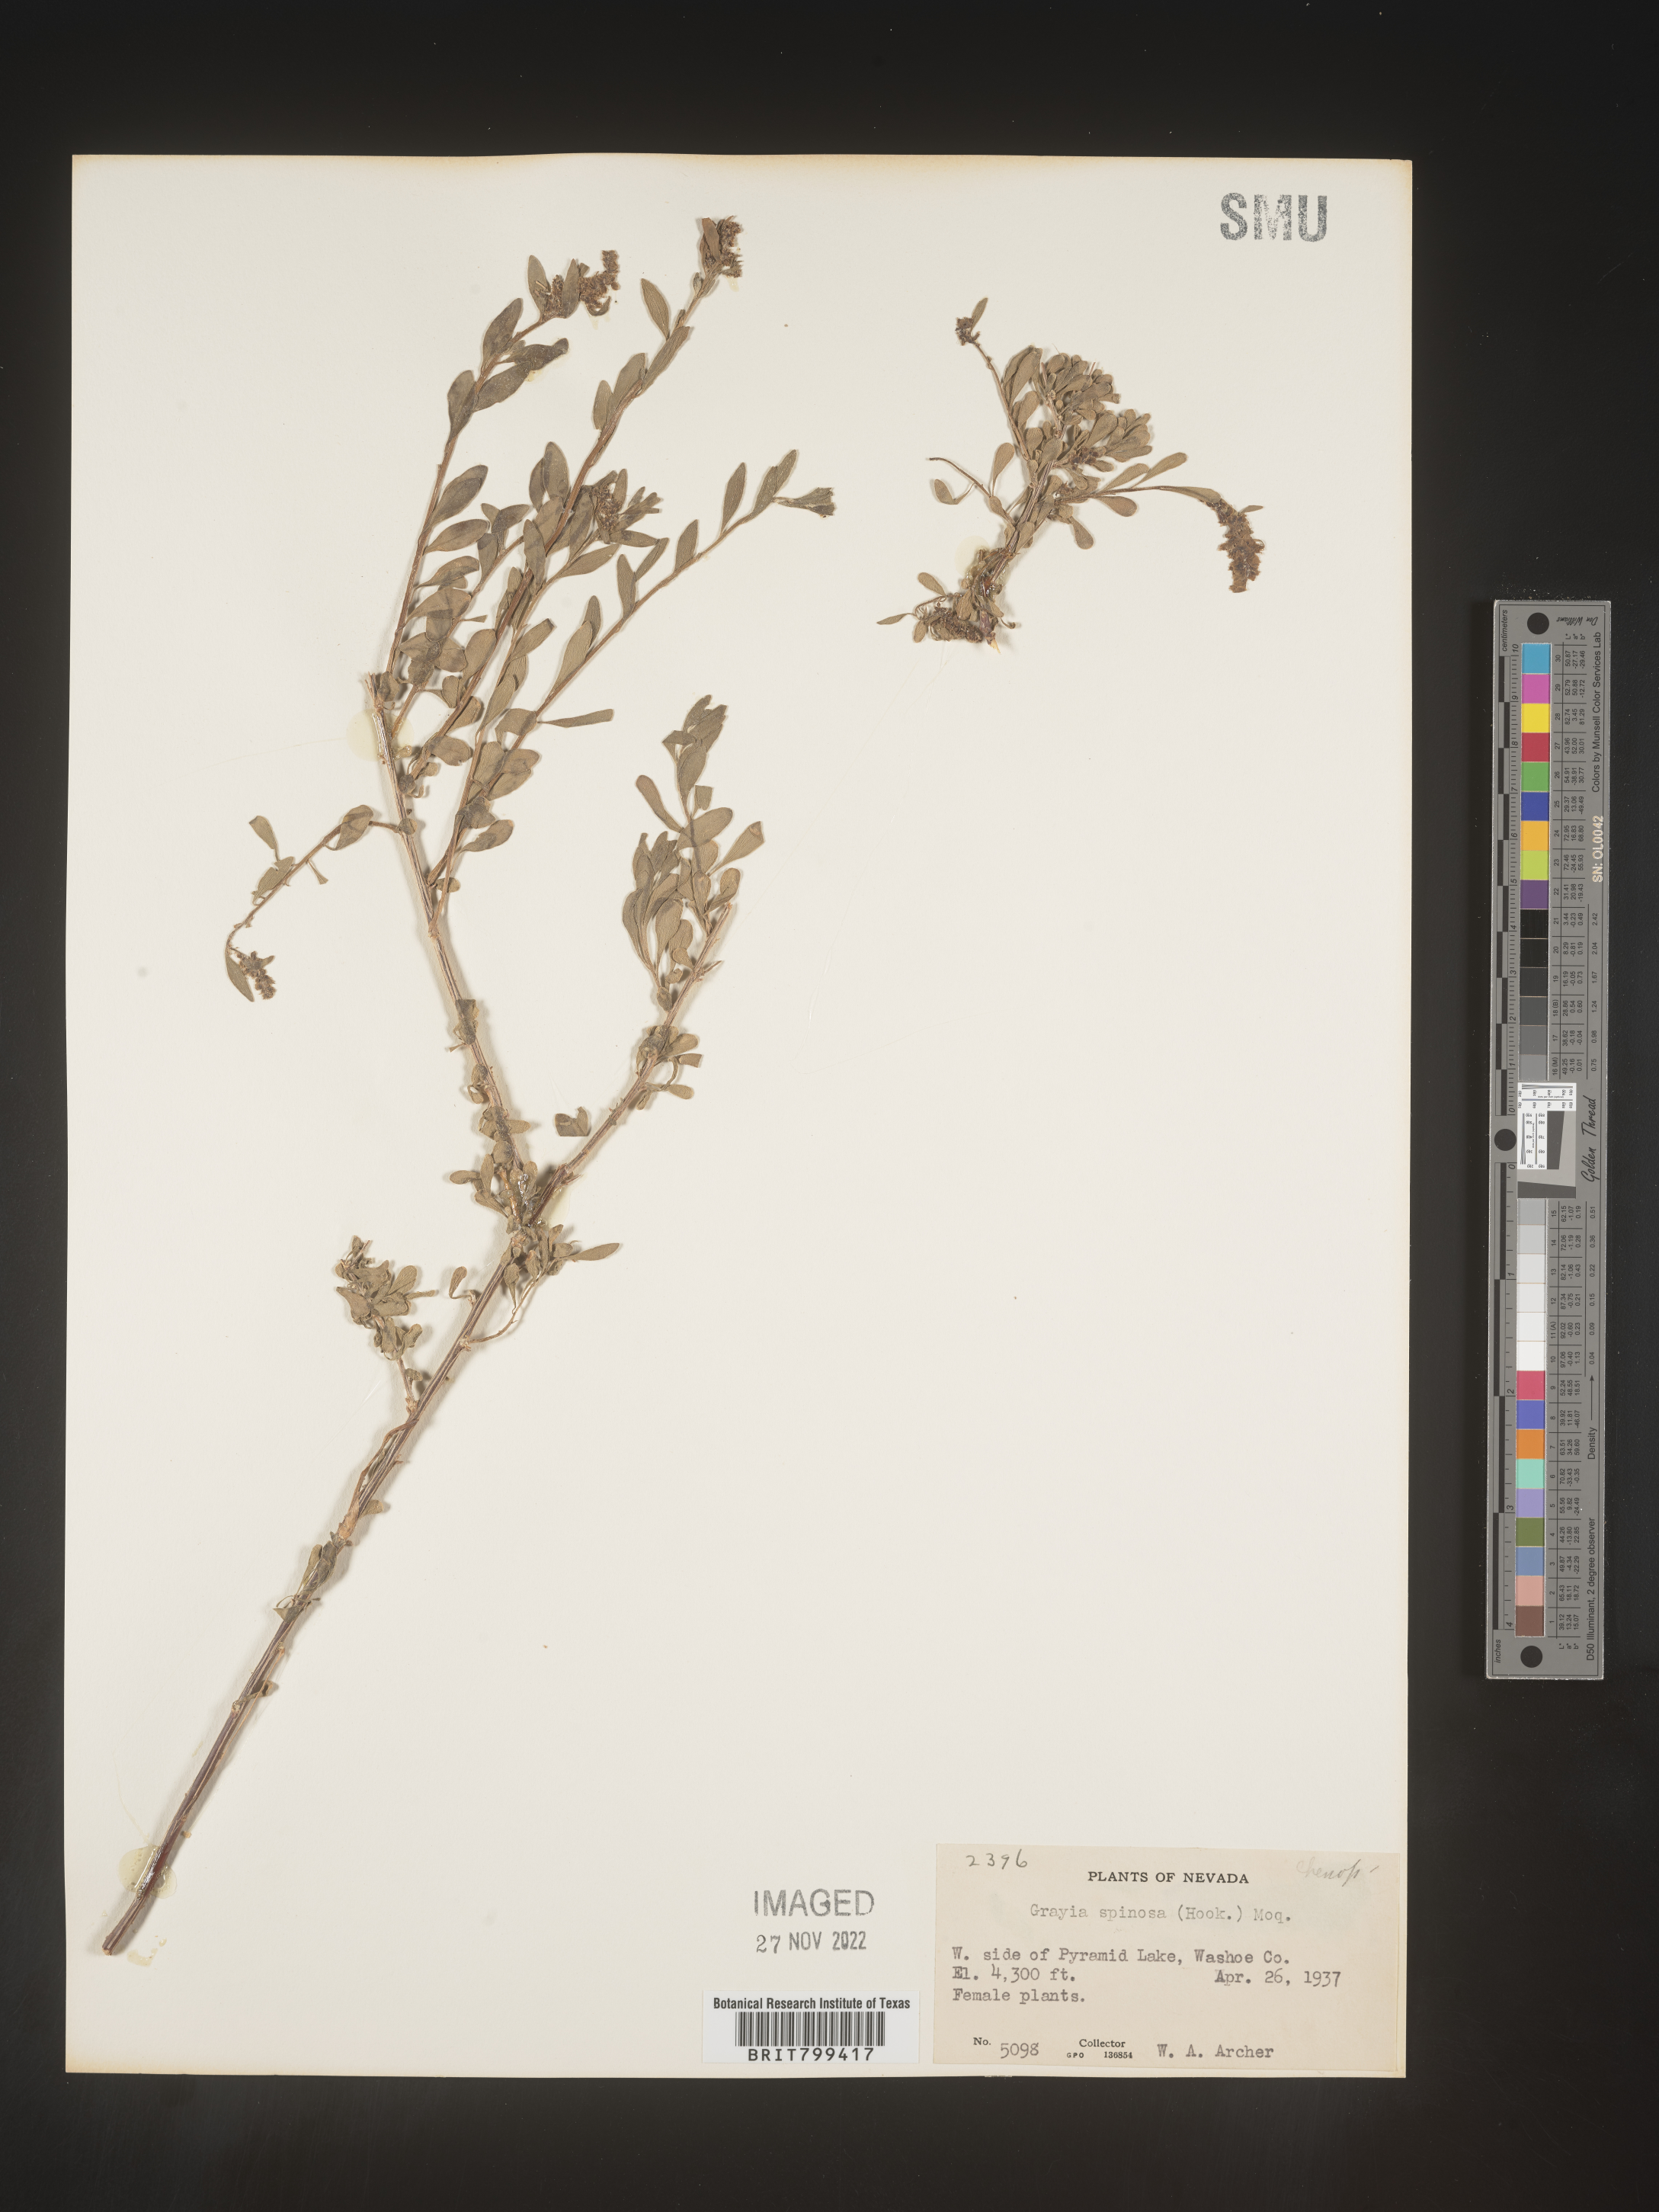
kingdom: Plantae
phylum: Tracheophyta
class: Magnoliopsida
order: Caryophyllales
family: Amaranthaceae
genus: Grayia
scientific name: Grayia spinosa
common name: Spiny hopsage
